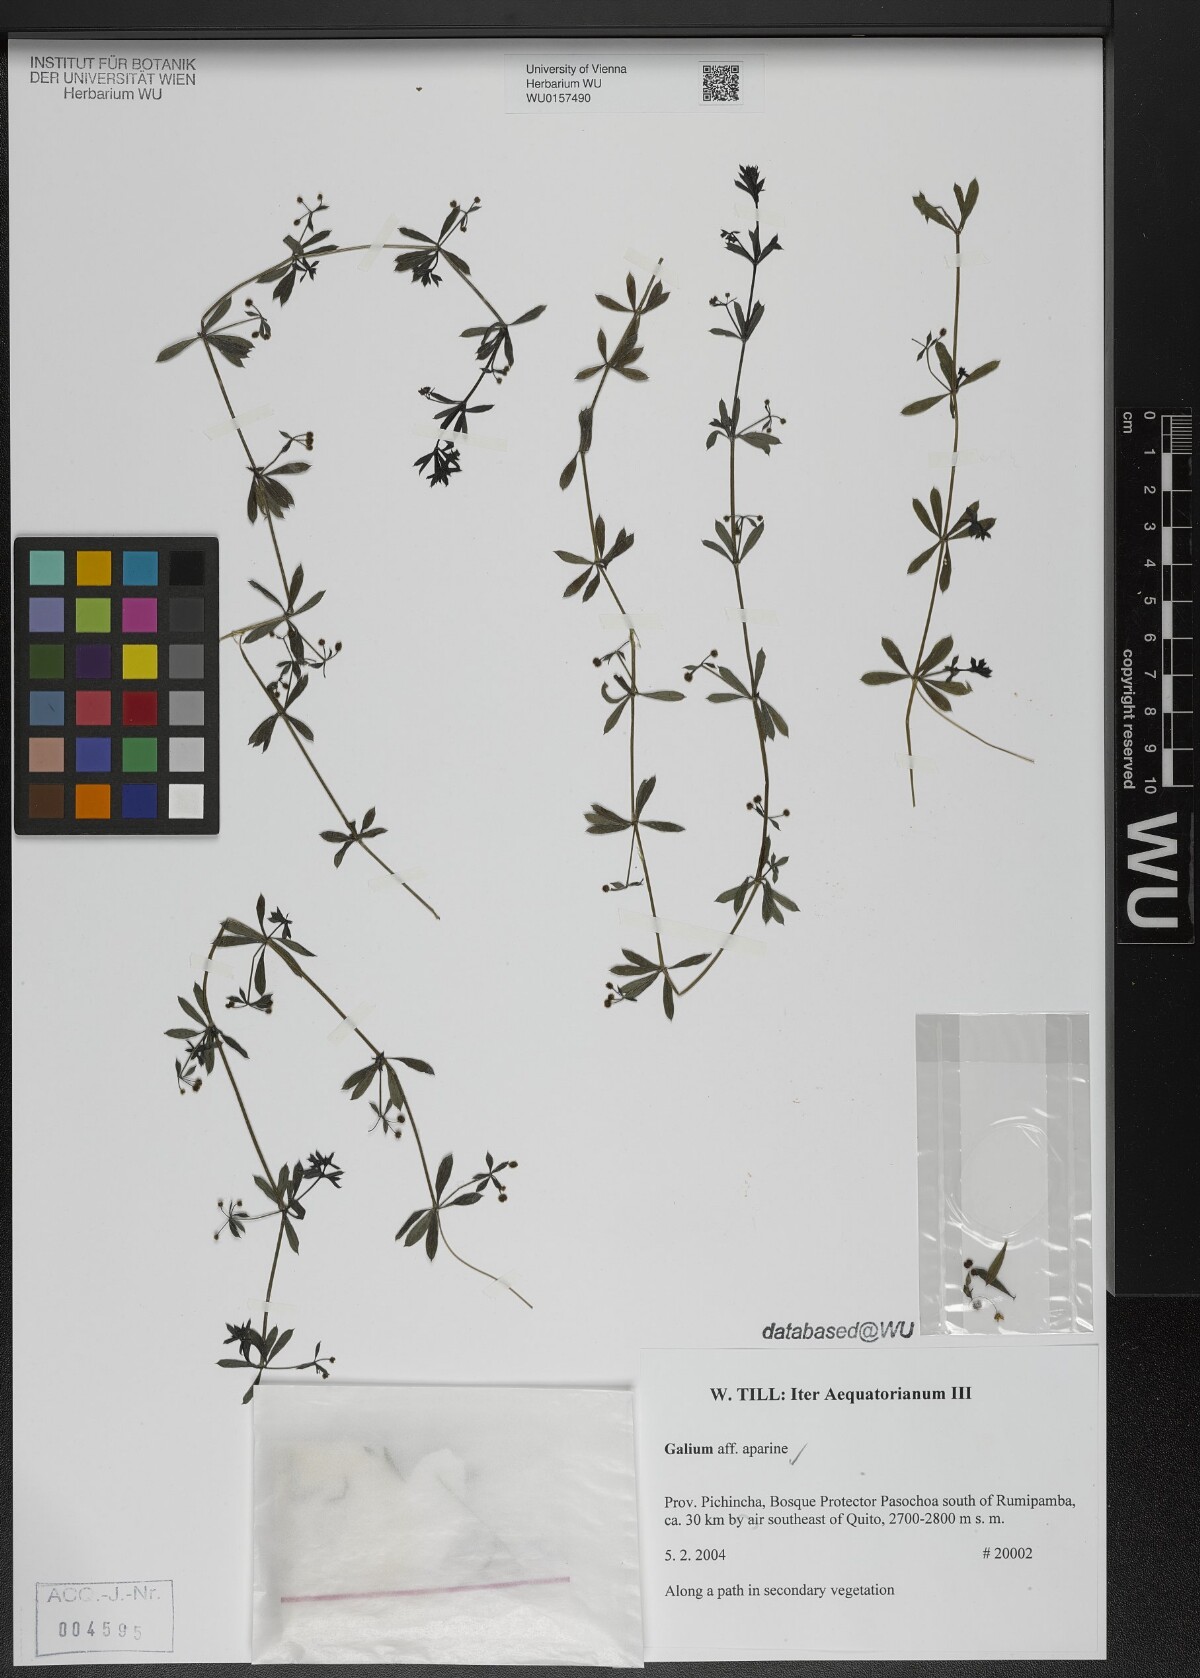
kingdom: Plantae
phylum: Tracheophyta
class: Magnoliopsida
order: Gentianales
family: Rubiaceae
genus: Galium
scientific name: Galium aparine
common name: Cleavers
